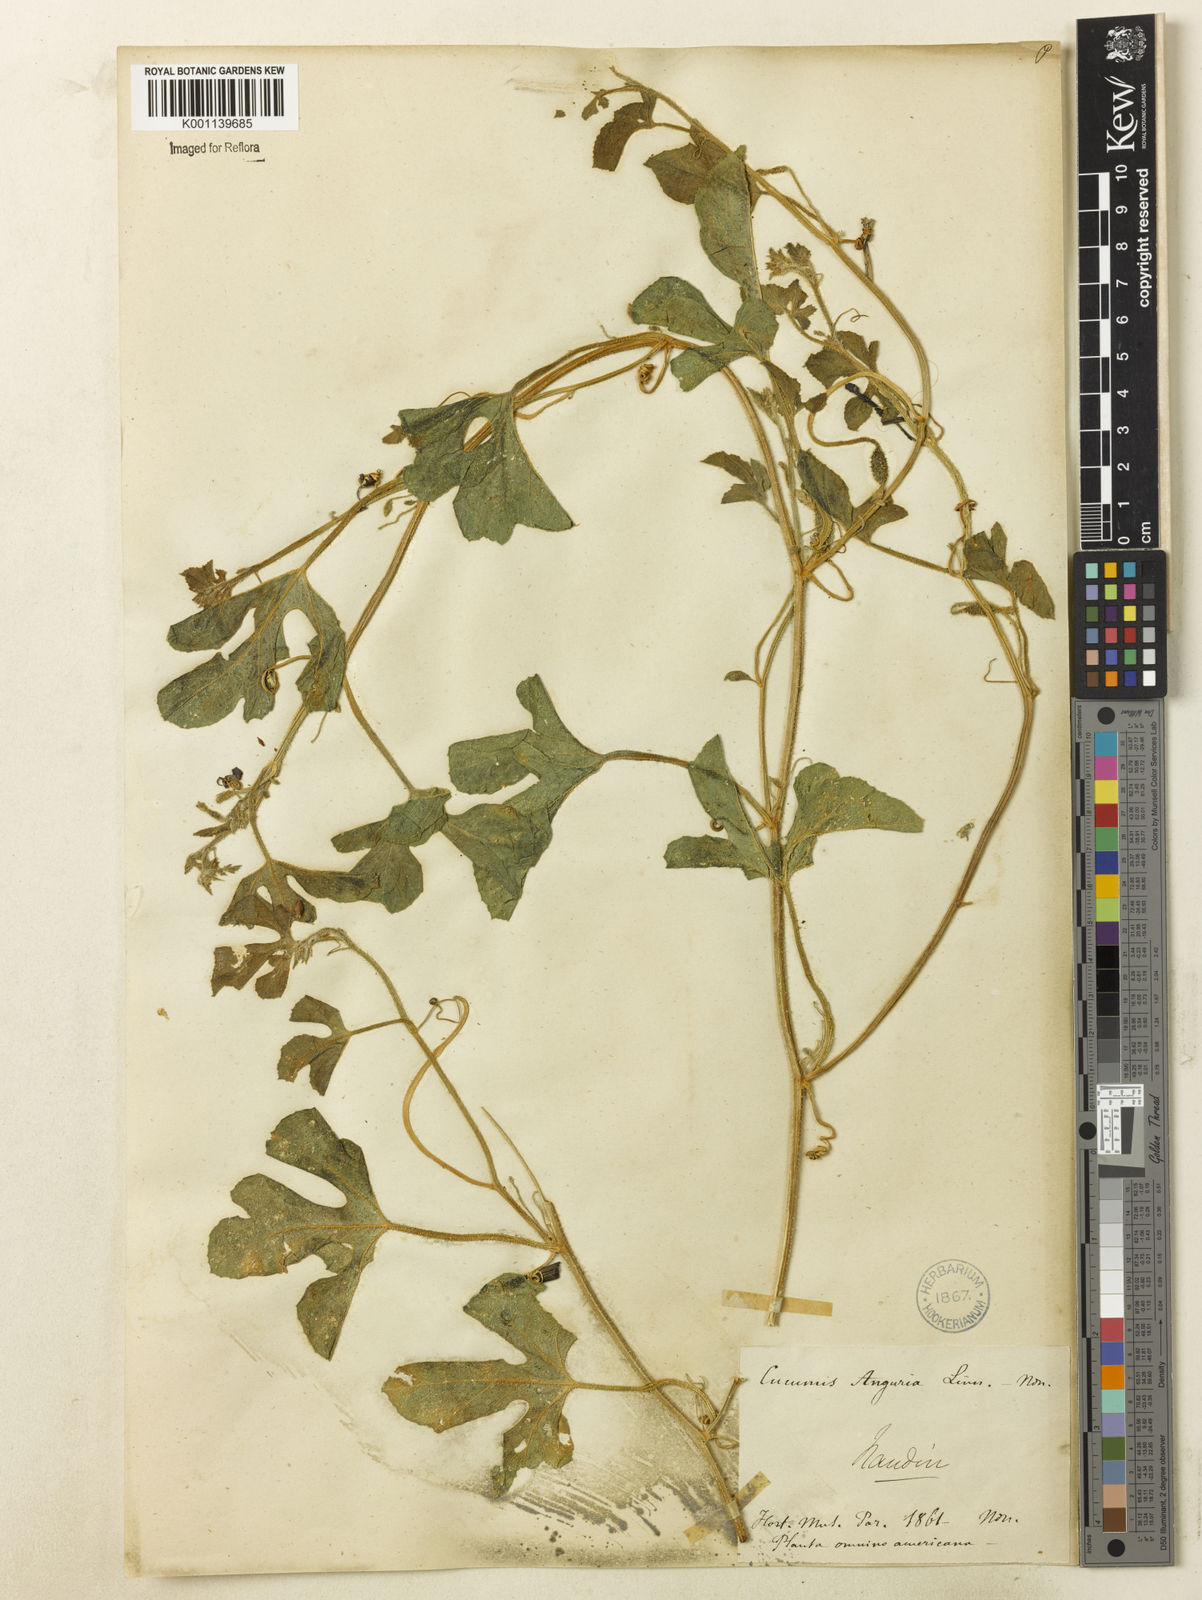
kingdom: Plantae
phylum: Tracheophyta
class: Magnoliopsida
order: Cucurbitales
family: Cucurbitaceae
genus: Cucumis
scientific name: Cucumis anguria
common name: West indian gherkin
